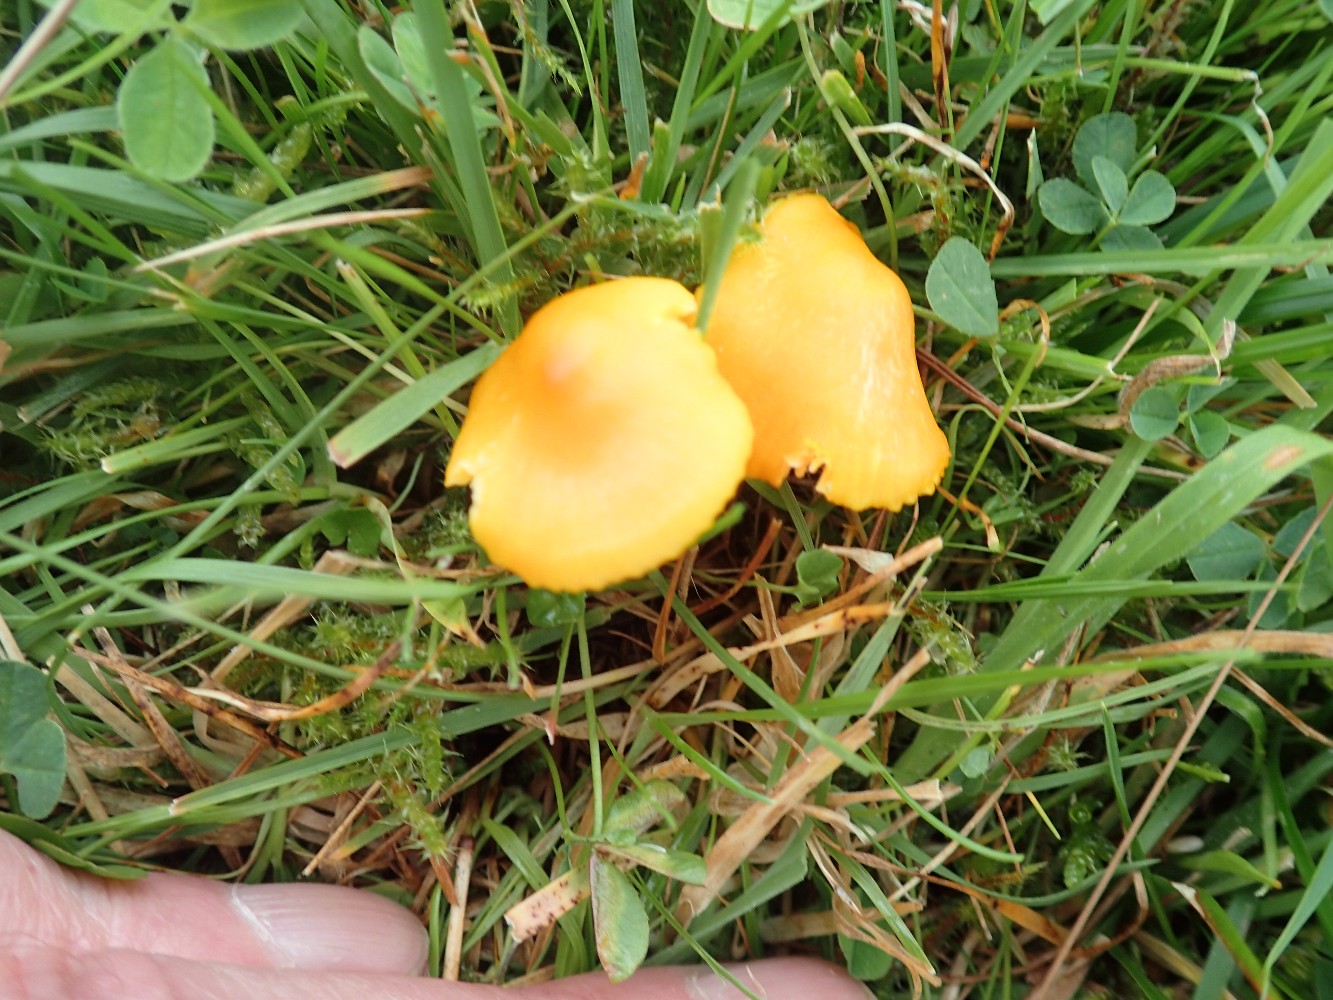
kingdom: Fungi
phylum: Basidiomycota
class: Agaricomycetes
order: Agaricales
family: Hygrophoraceae
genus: Hygrocybe
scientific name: Hygrocybe ceracea
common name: voksgul vokshat
